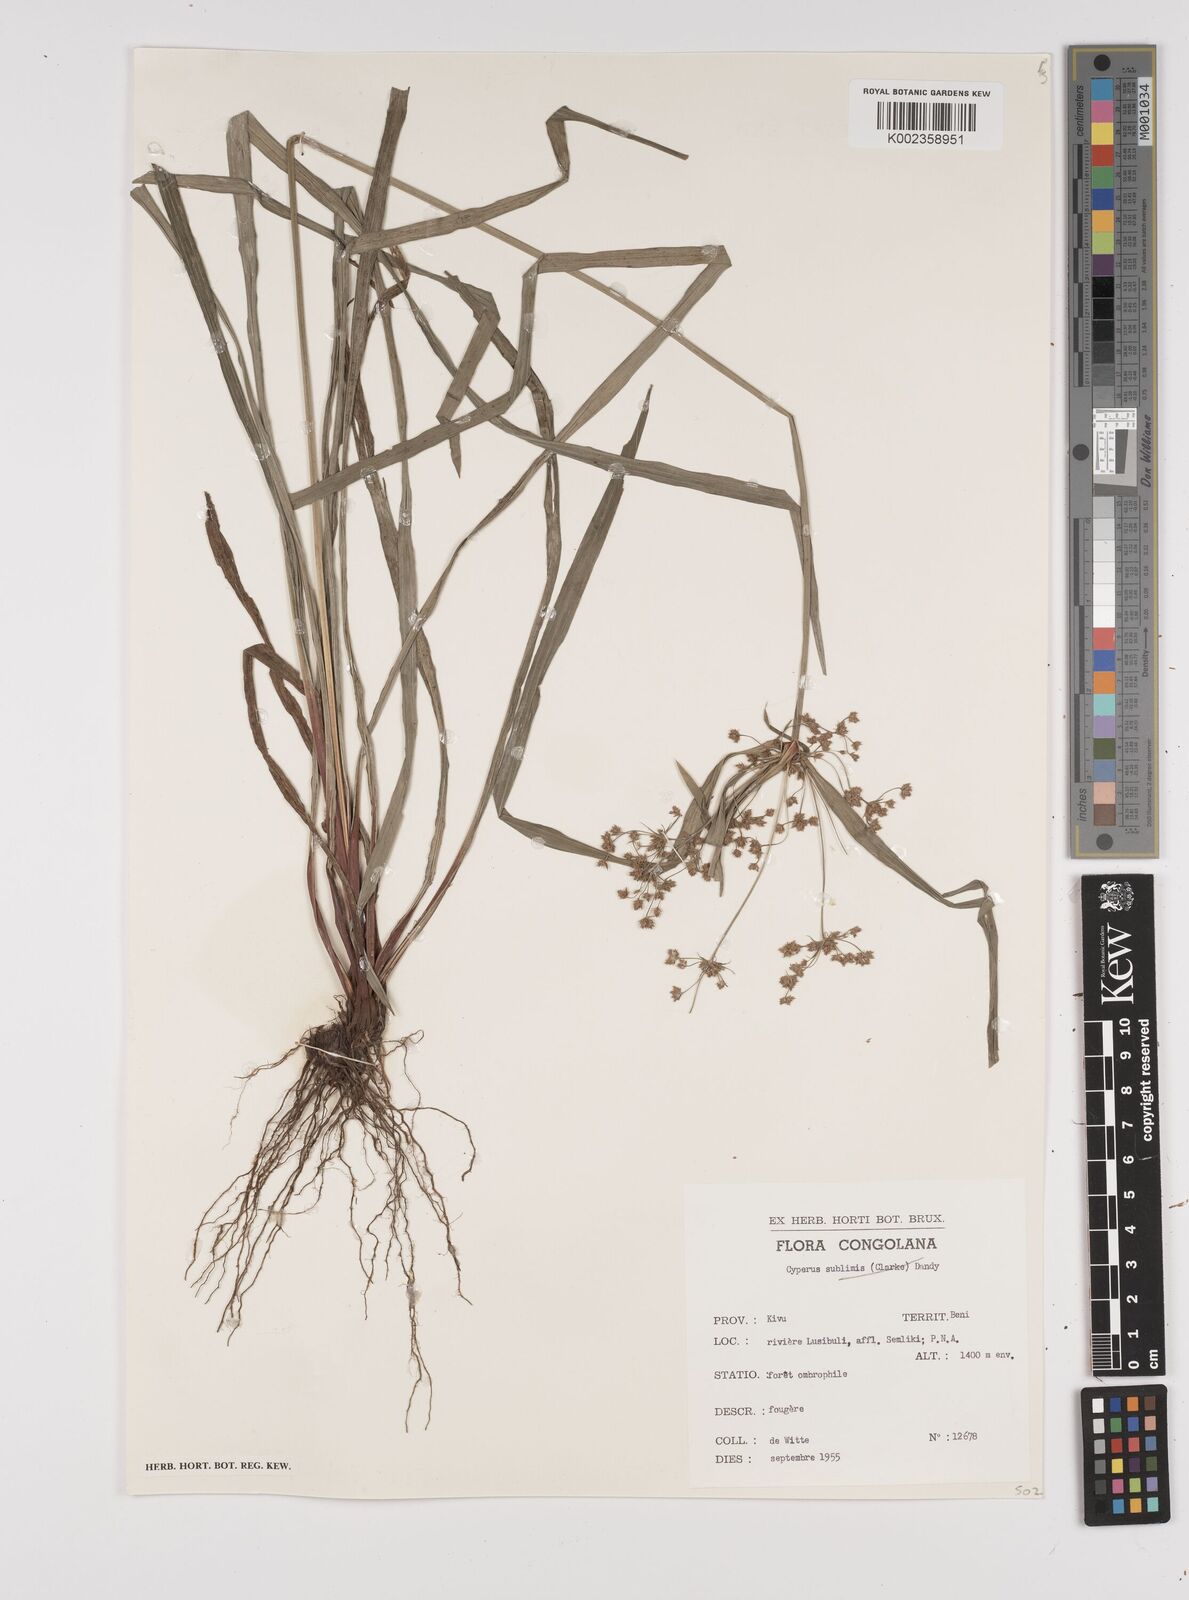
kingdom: Plantae
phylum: Tracheophyta
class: Liliopsida
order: Poales
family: Cyperaceae
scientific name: Cyperaceae
